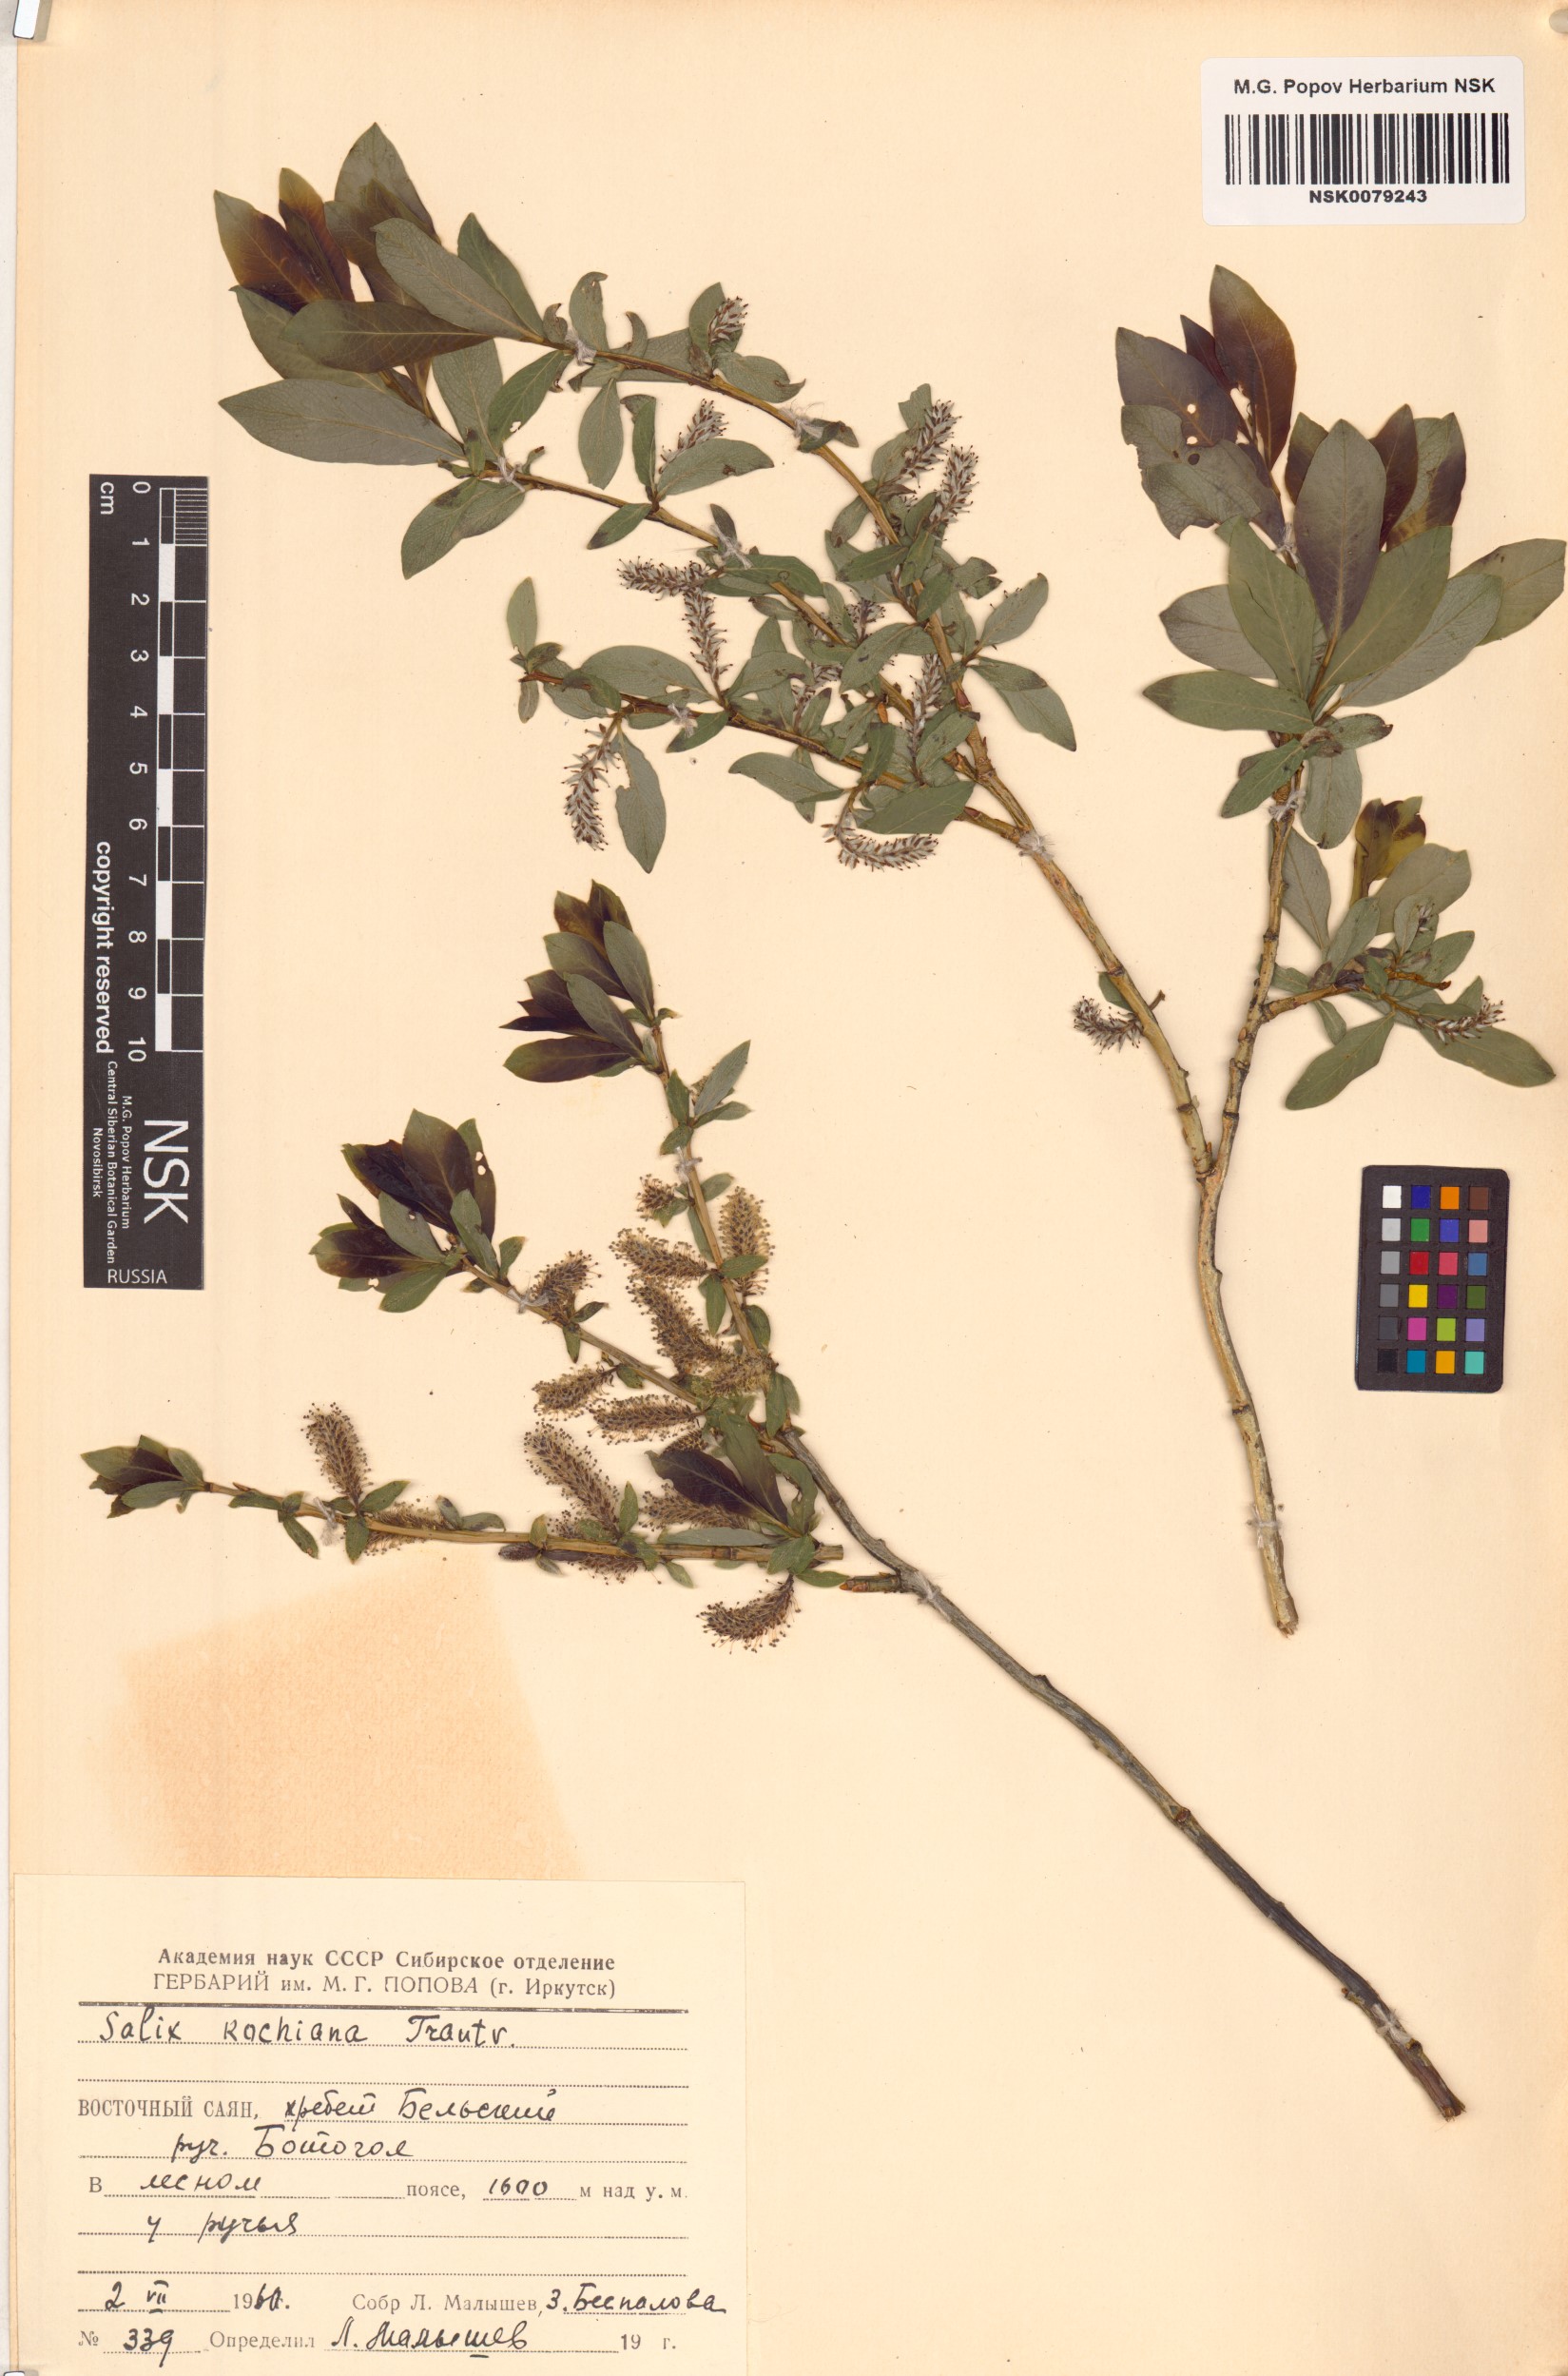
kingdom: Plantae
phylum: Tracheophyta
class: Magnoliopsida
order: Malpighiales
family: Salicaceae
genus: Salix
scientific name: Salix kochiana
